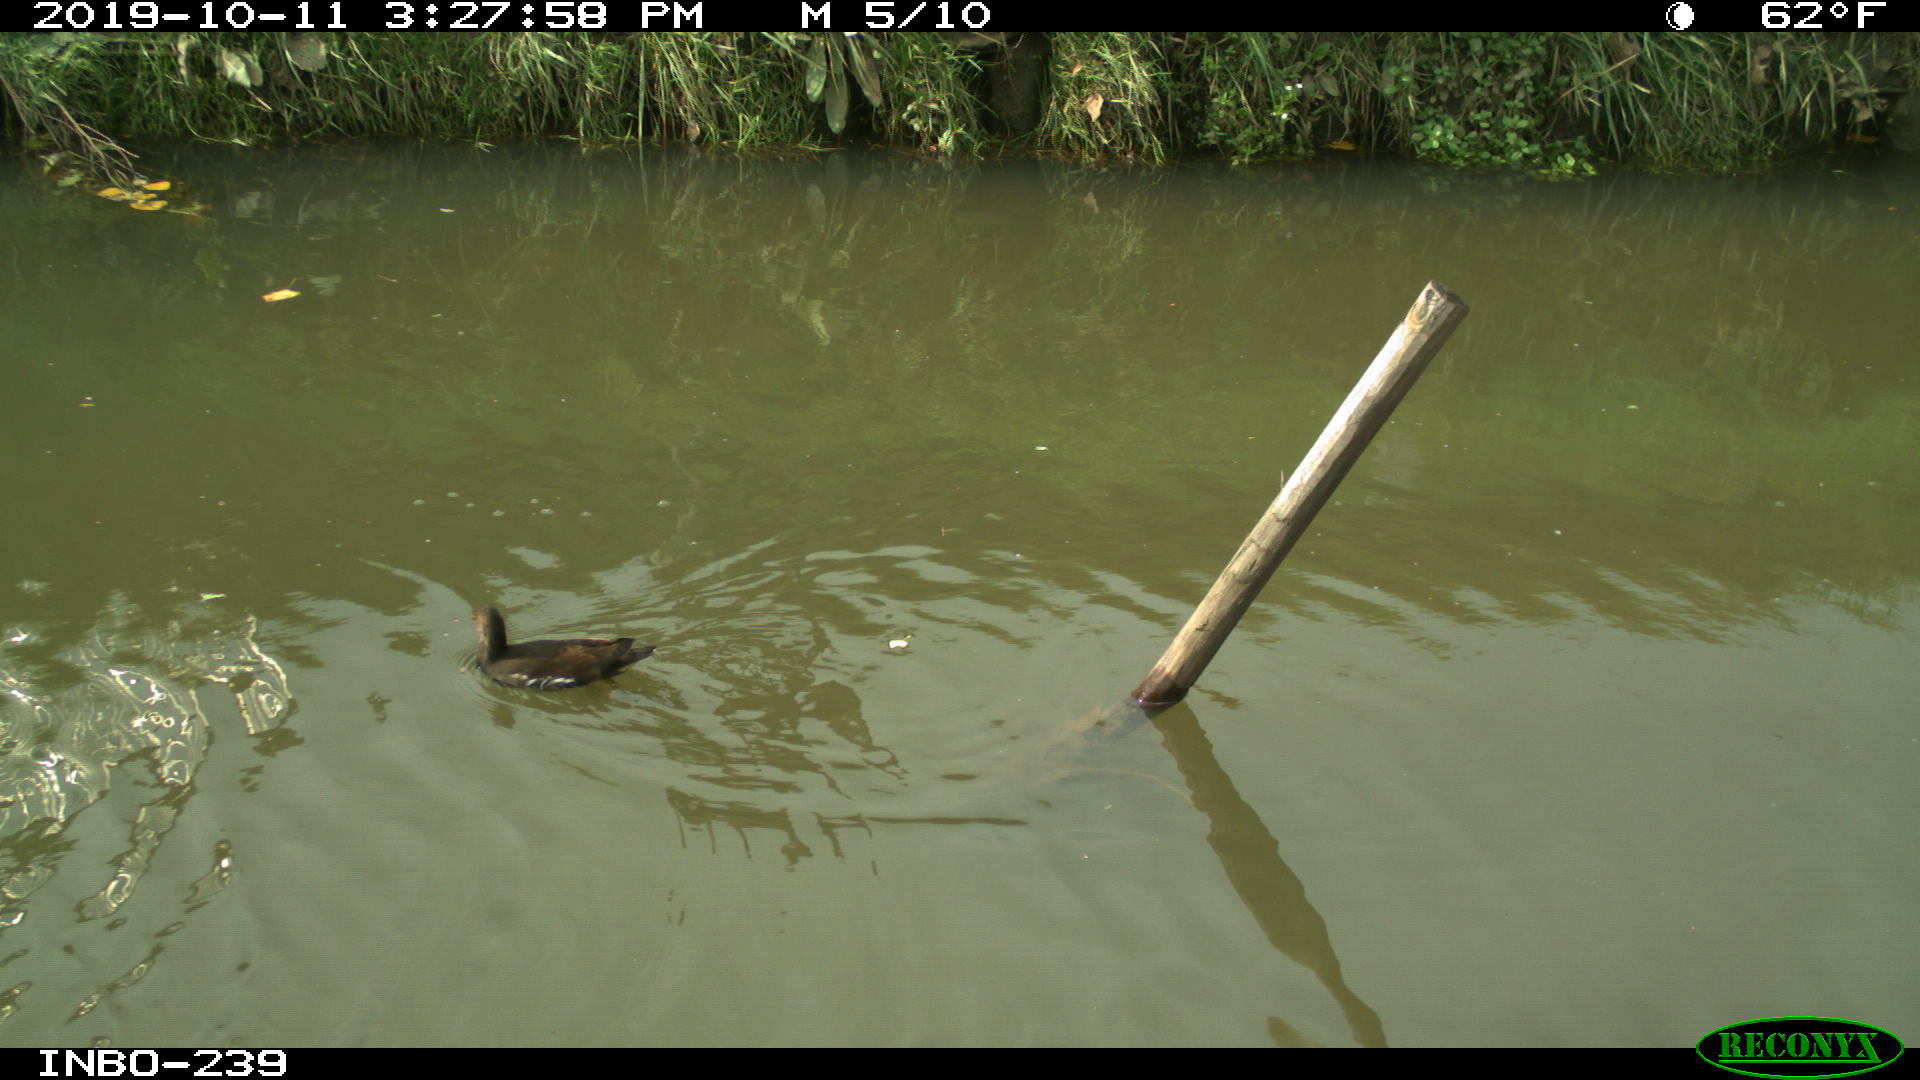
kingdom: Animalia
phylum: Chordata
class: Aves
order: Anseriformes
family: Anatidae
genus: Anas
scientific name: Anas platyrhynchos
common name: Mallard
